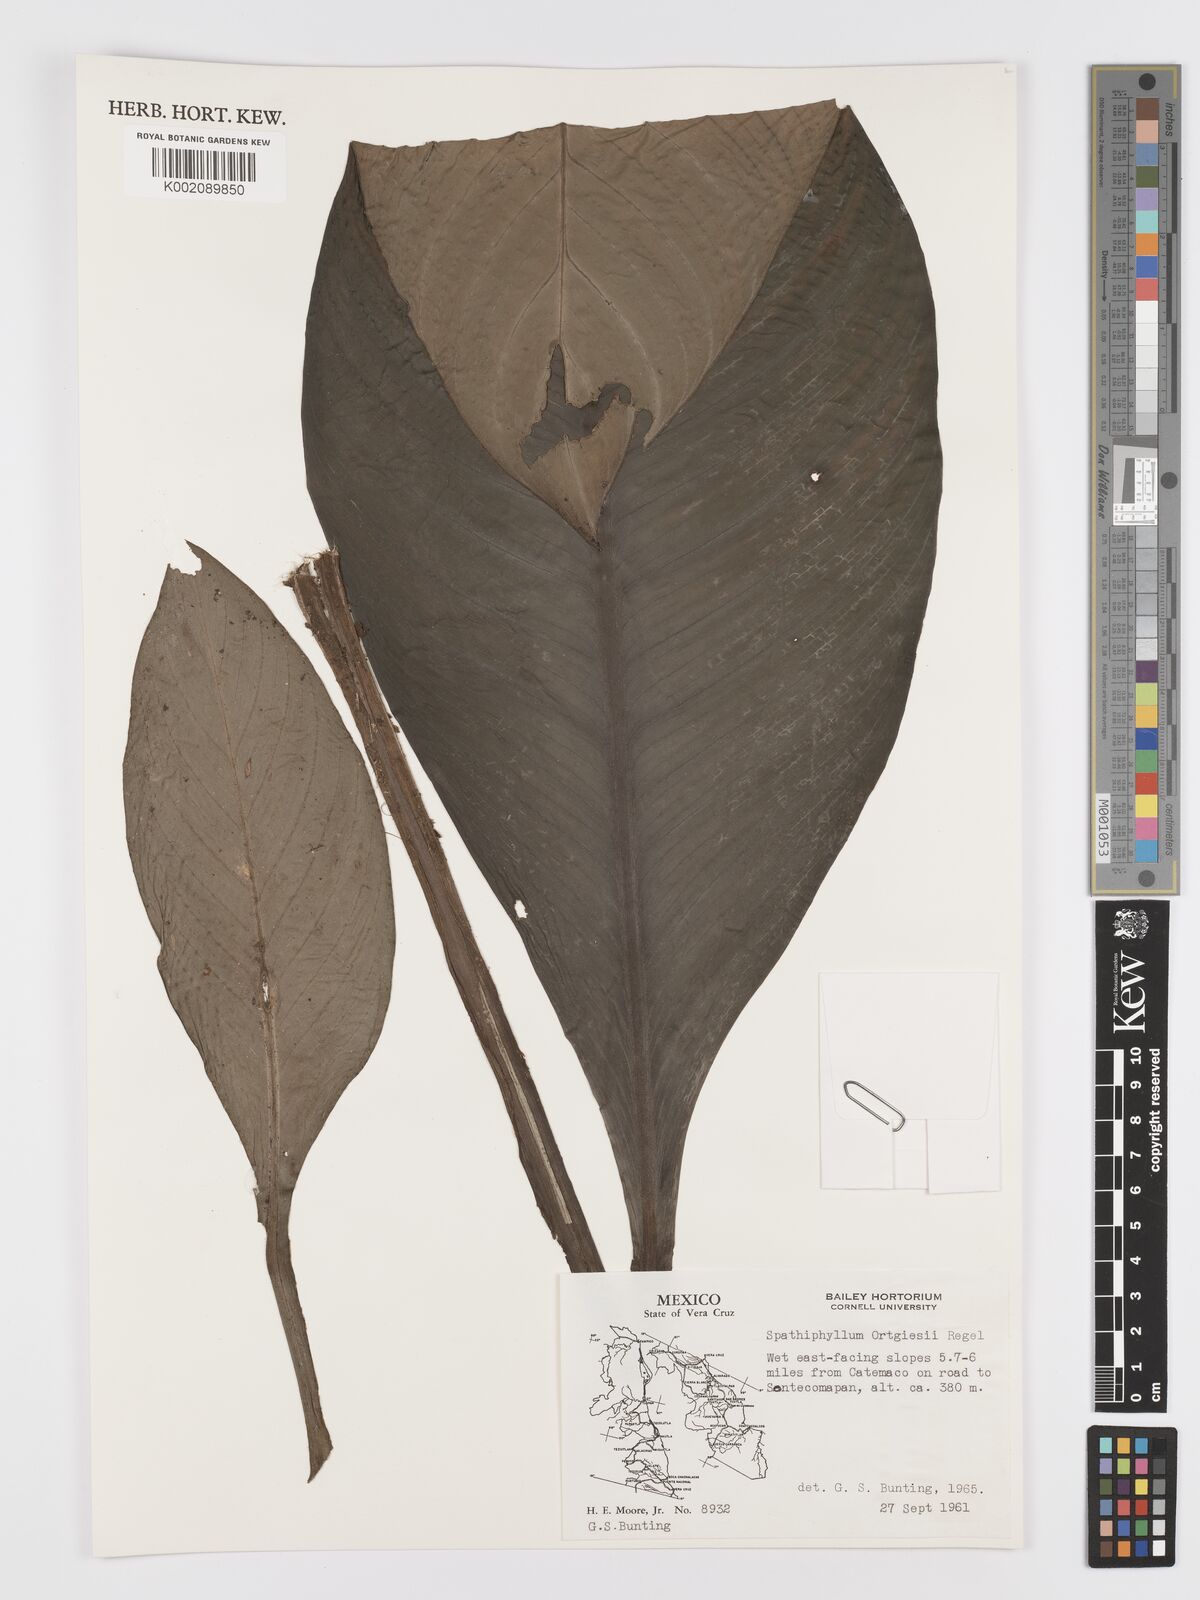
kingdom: Plantae
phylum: Tracheophyta
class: Liliopsida
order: Alismatales
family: Araceae
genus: Spathiphyllum
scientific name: Spathiphyllum ortgiesii
